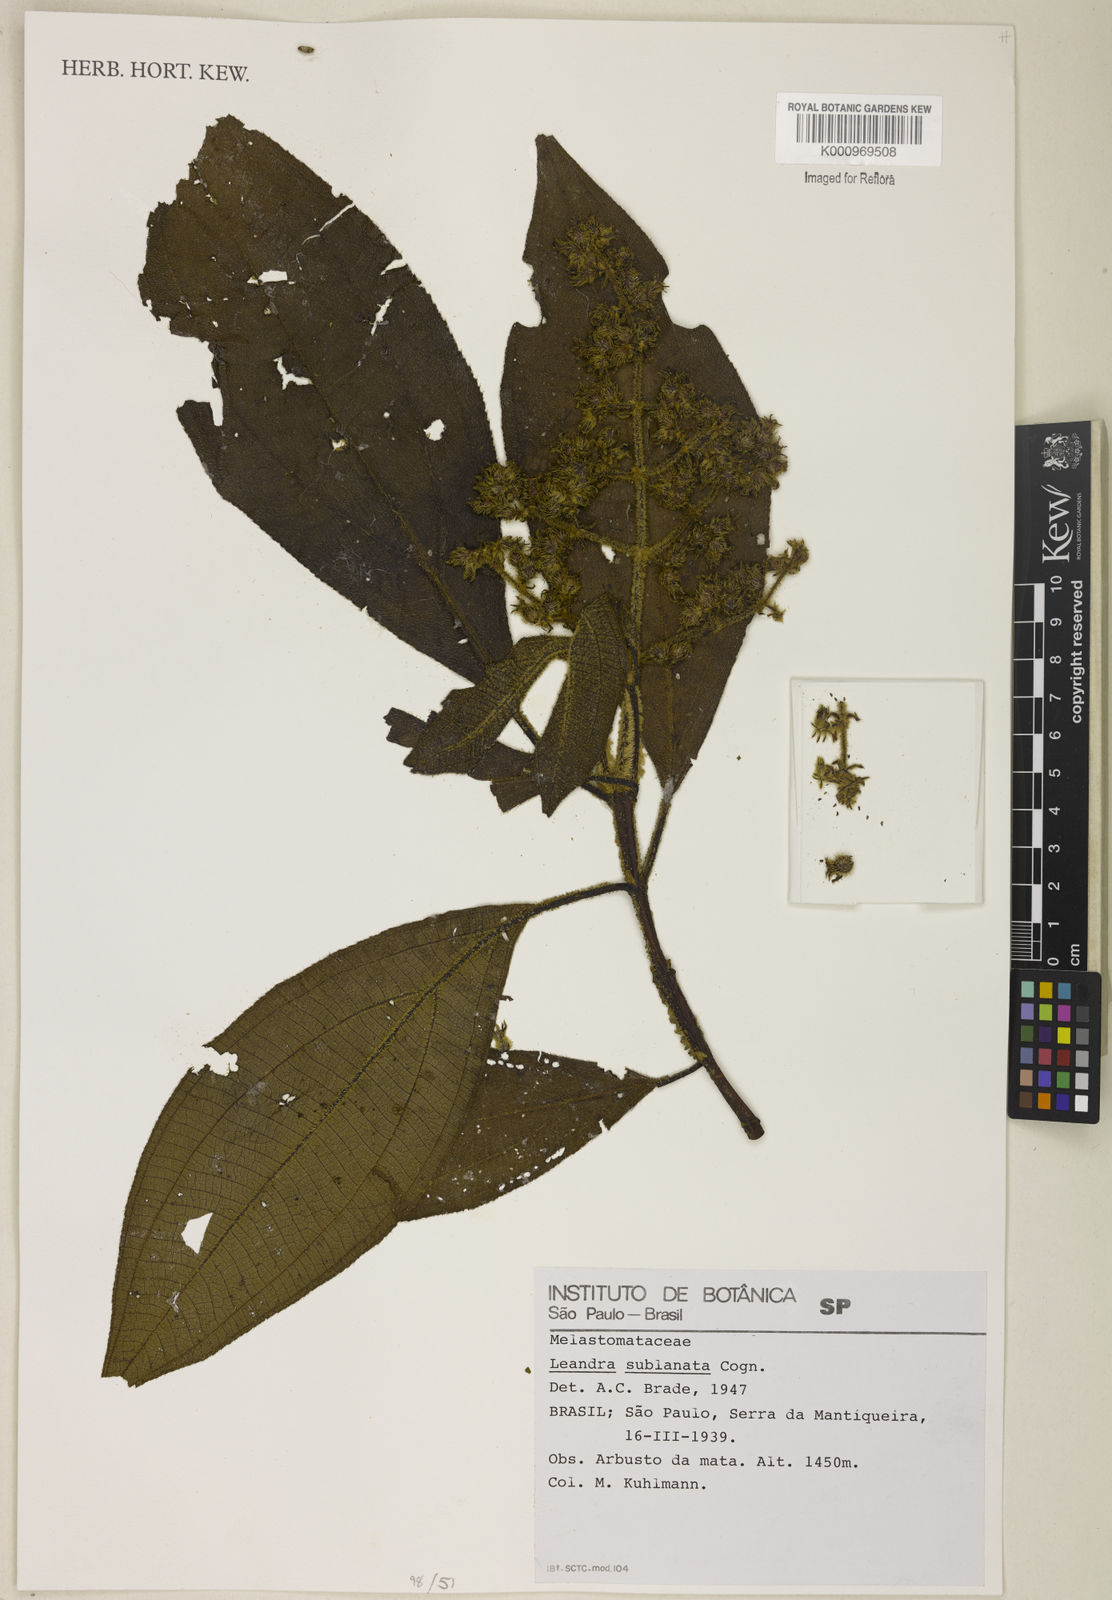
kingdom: Plantae
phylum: Tracheophyta
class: Magnoliopsida
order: Myrtales
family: Melastomataceae
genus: Miconia
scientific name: Miconia sublanata
